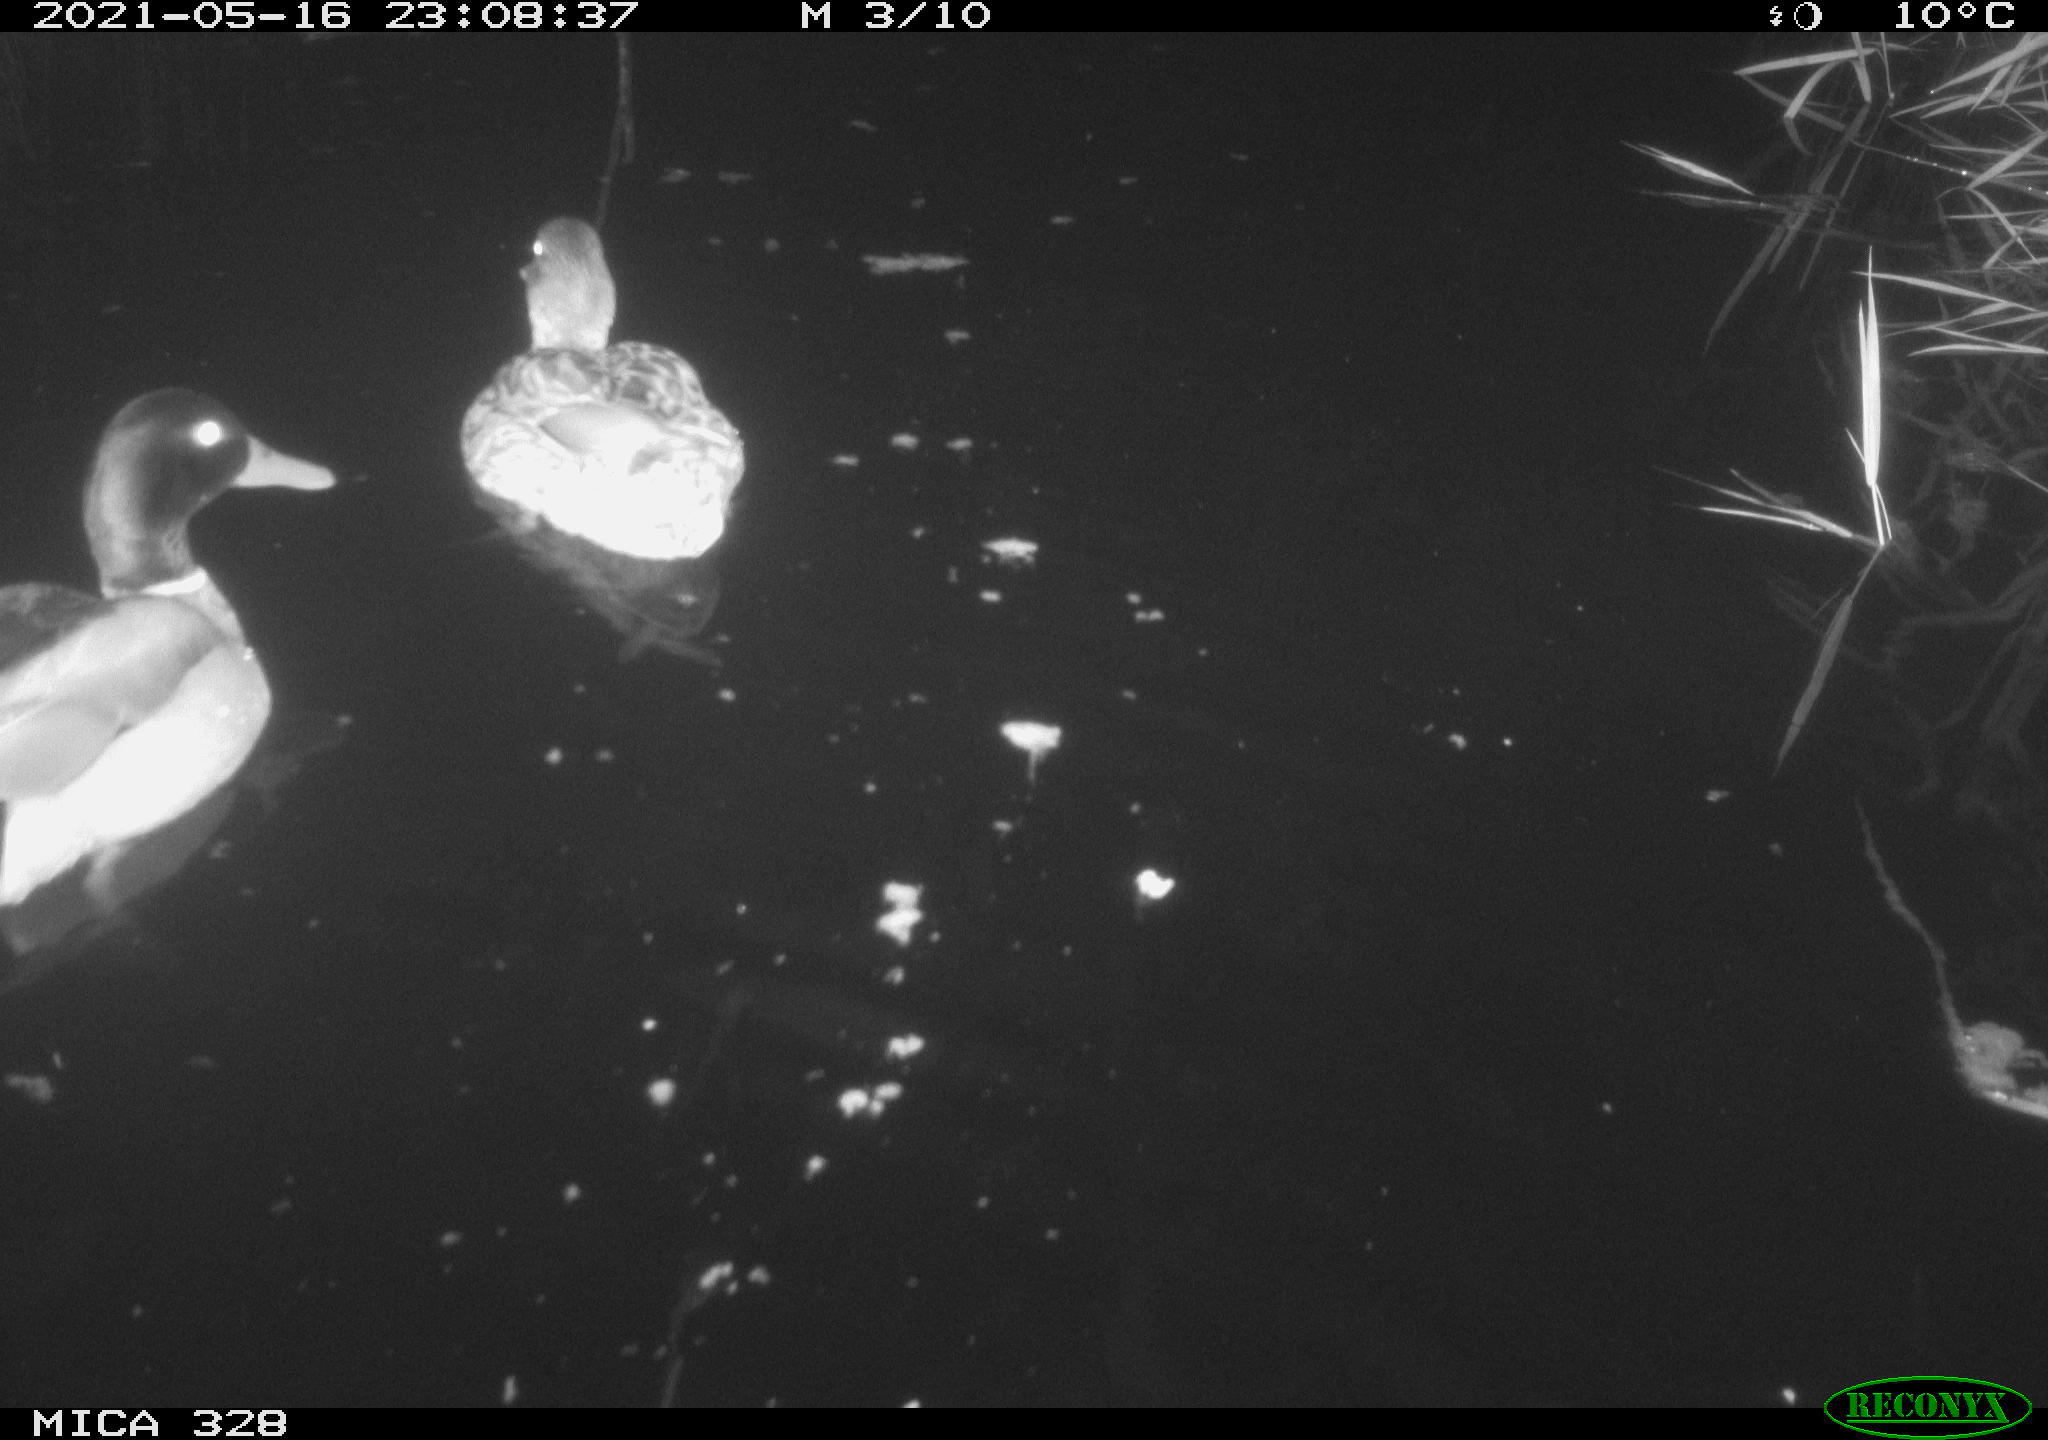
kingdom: Animalia
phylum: Chordata
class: Aves
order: Anseriformes
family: Anatidae
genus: Anas
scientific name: Anas platyrhynchos
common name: Mallard
